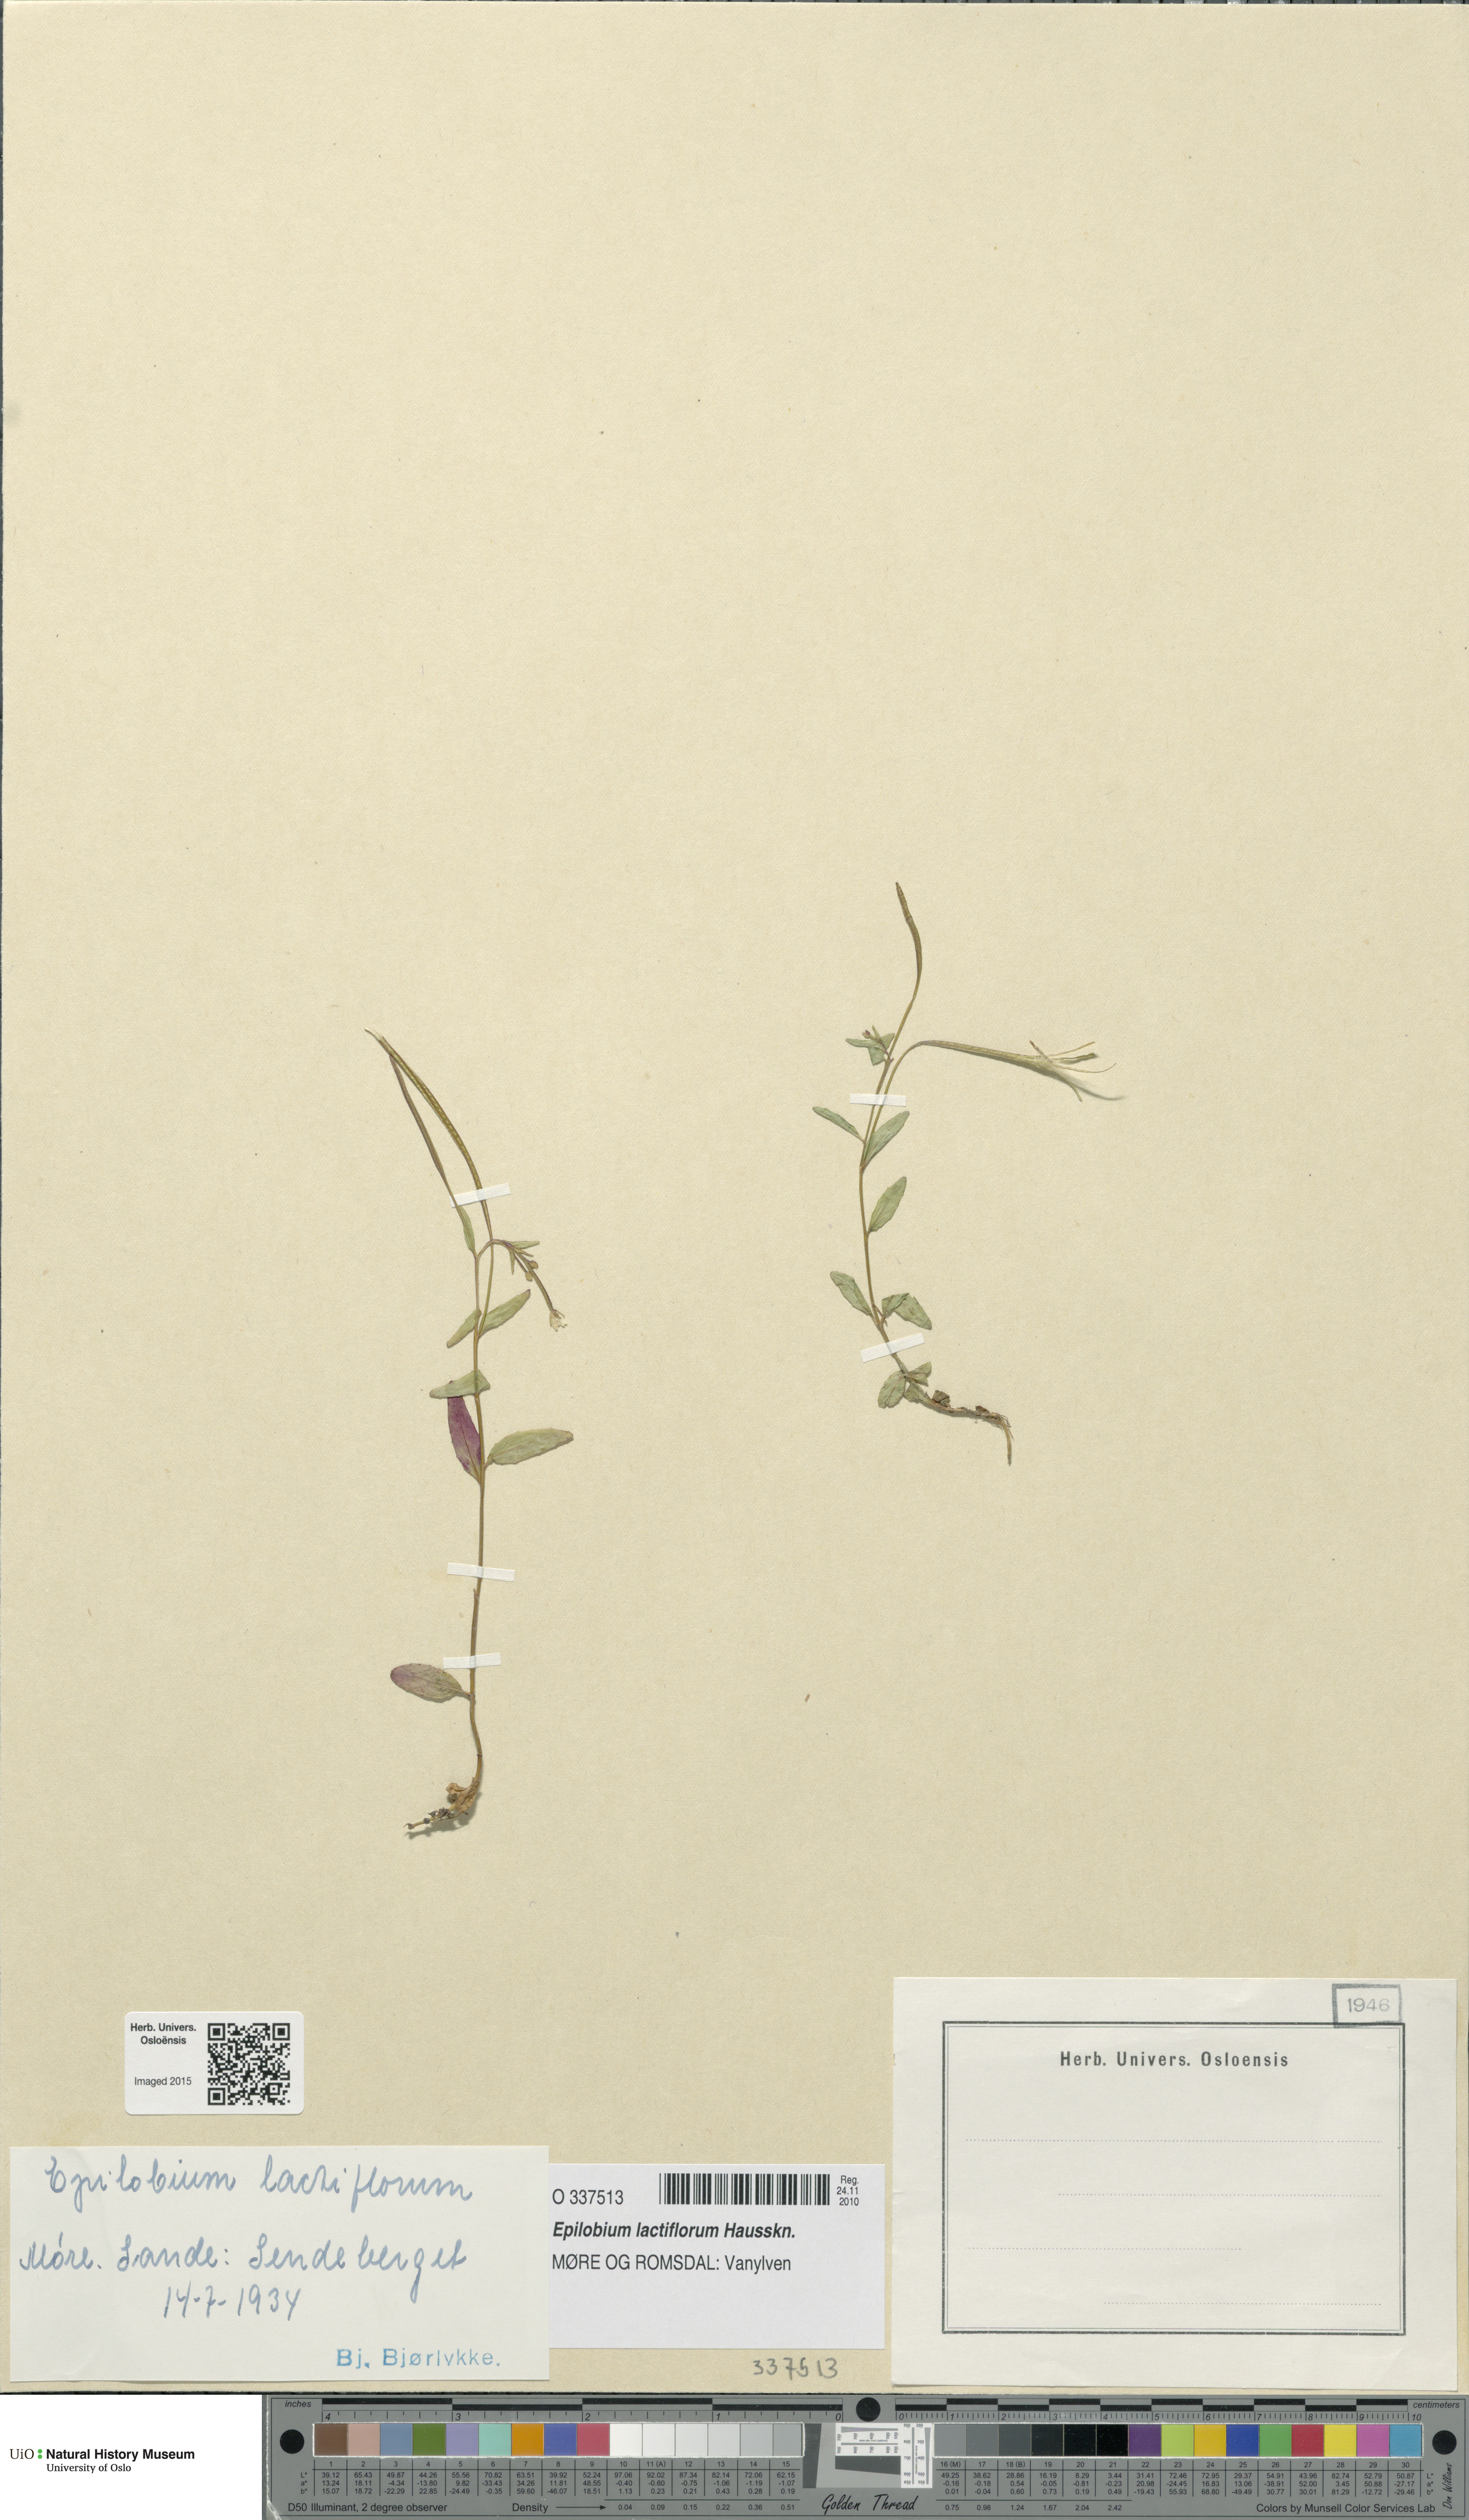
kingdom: Plantae
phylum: Tracheophyta
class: Magnoliopsida
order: Myrtales
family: Onagraceae
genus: Epilobium
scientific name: Epilobium lactiflorum
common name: Milkflower willowherb
